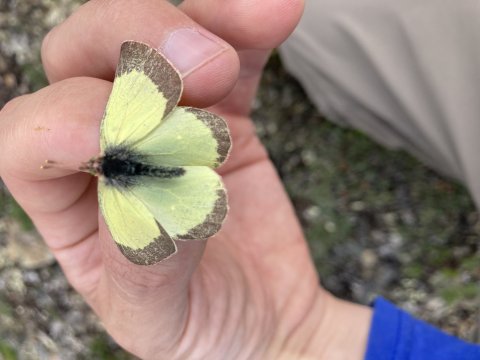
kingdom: Animalia
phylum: Arthropoda
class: Insecta
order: Lepidoptera
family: Pieridae
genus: Colias
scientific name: Colias palaeno
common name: Chippewa Sulphur
